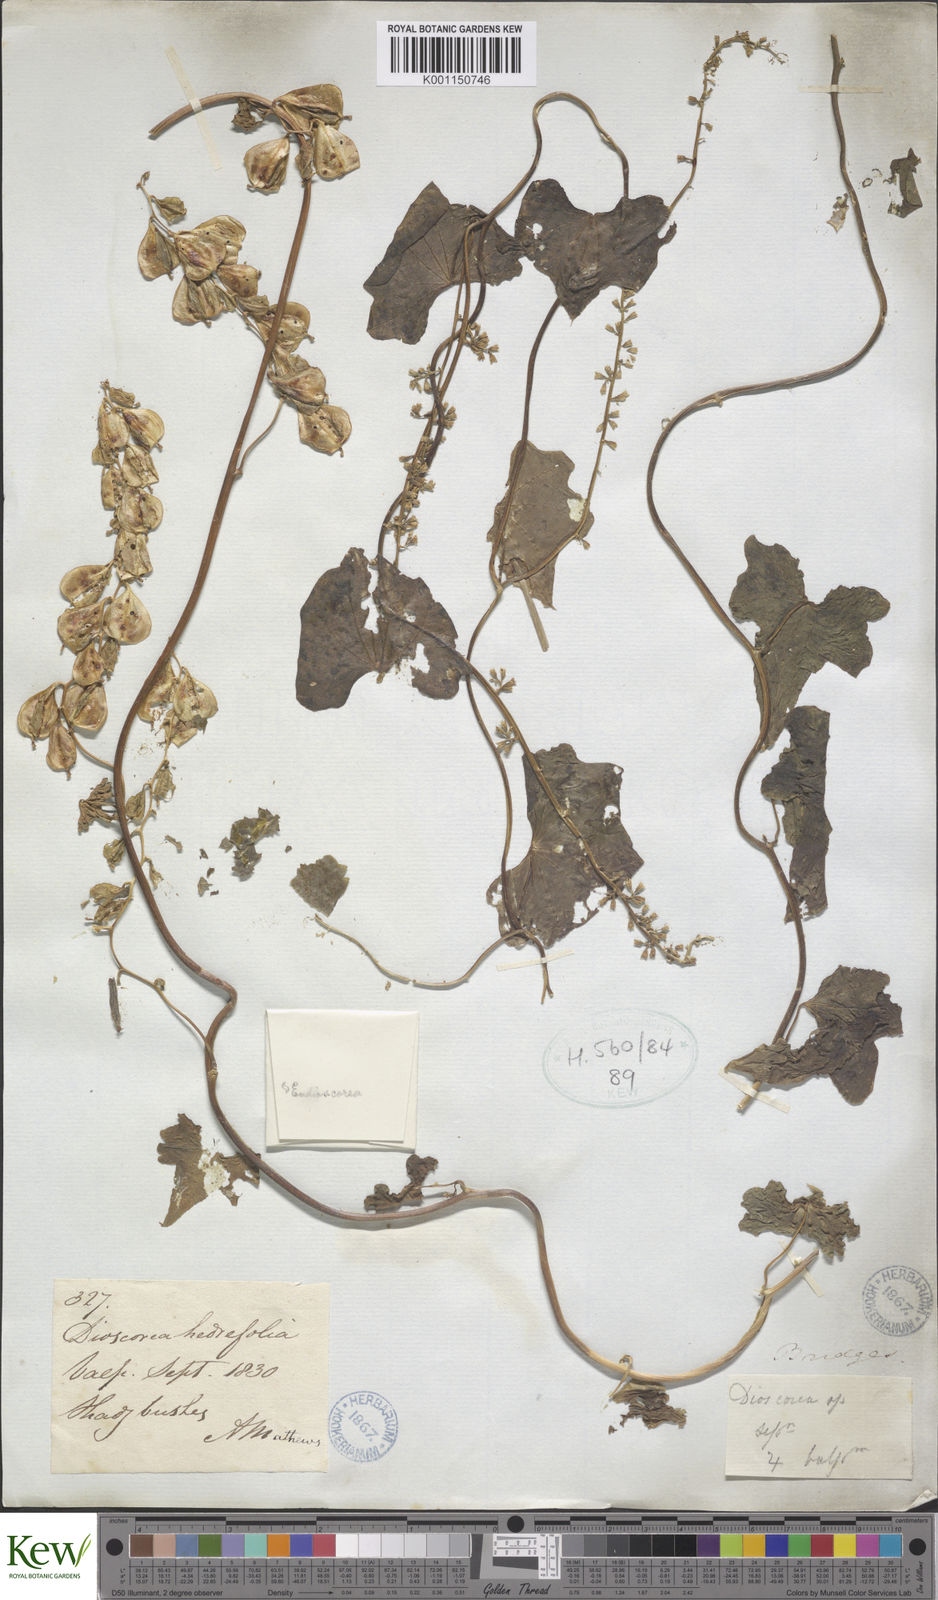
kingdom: Plantae
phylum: Tracheophyta
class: Liliopsida
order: Dioscoreales
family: Dioscoreaceae
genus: Dioscorea
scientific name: Dioscorea
